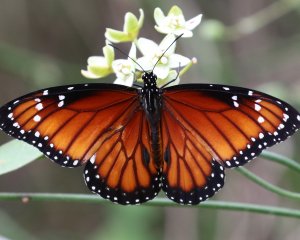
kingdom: Animalia
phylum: Arthropoda
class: Insecta
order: Lepidoptera
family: Nymphalidae
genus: Danaus
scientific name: Danaus eresimus
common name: Soldier
